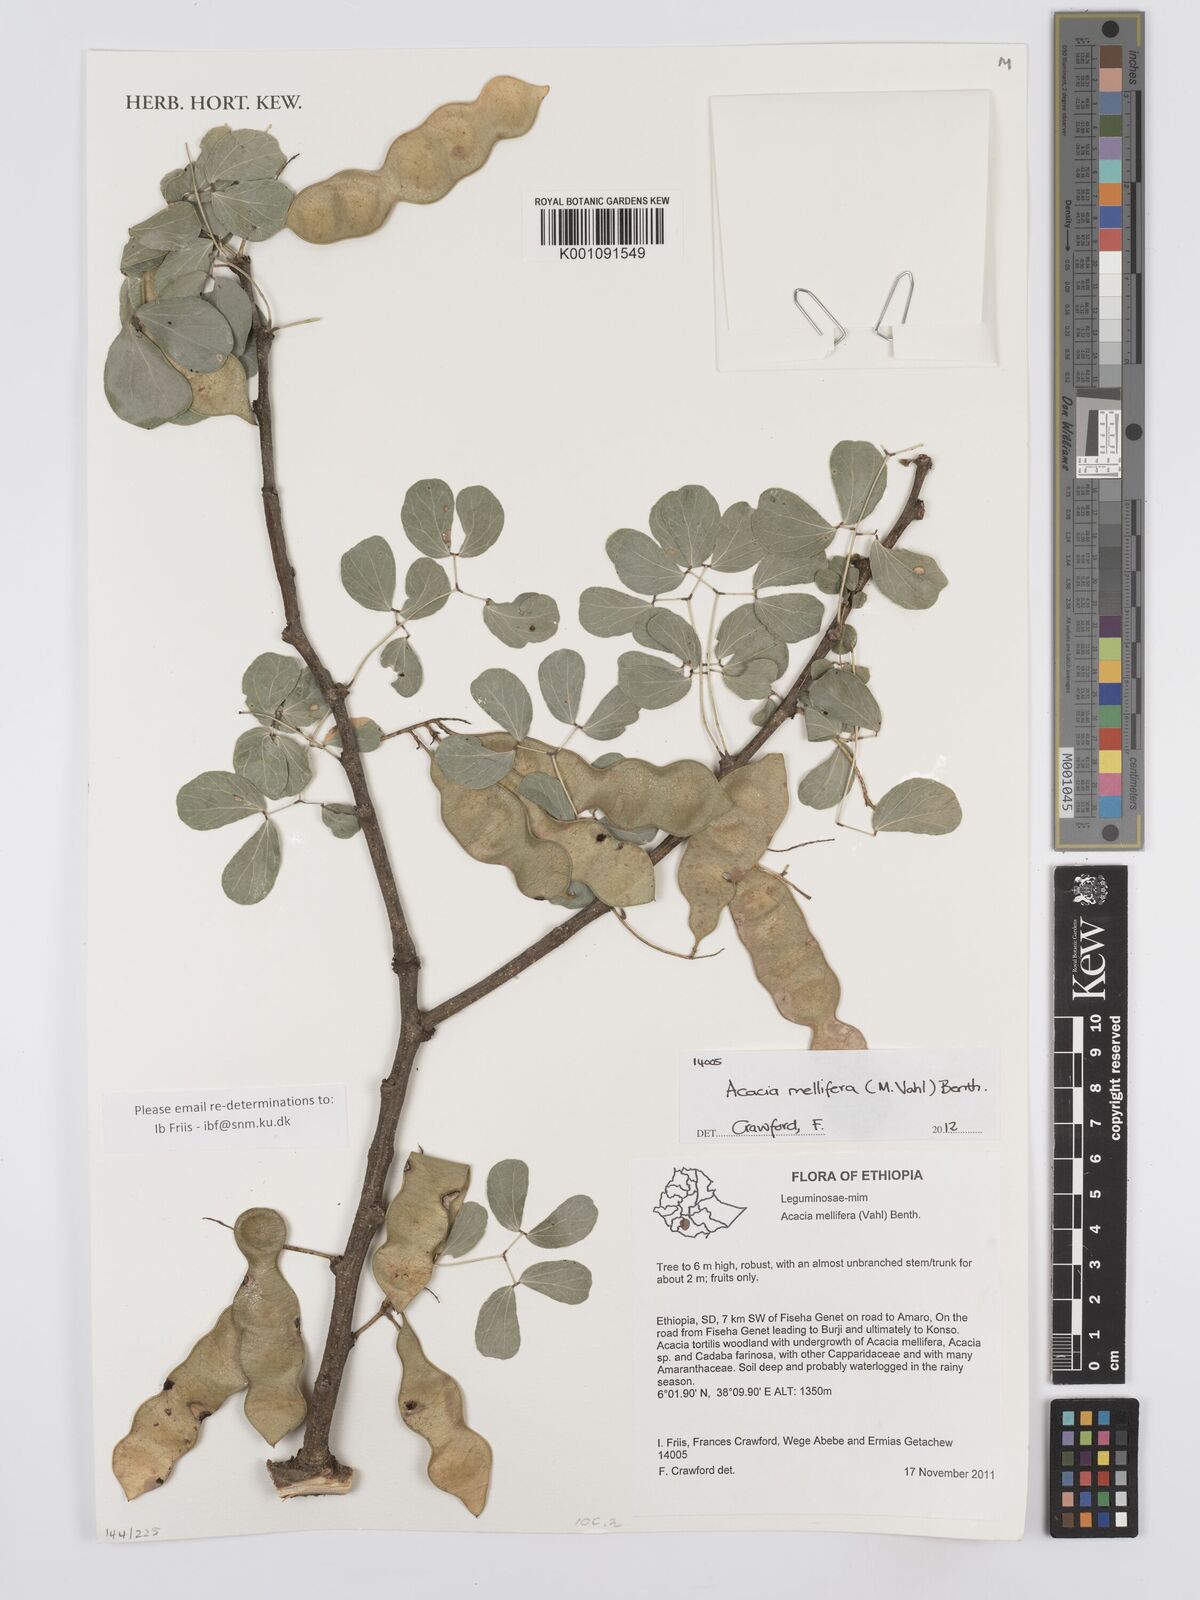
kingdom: Plantae
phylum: Tracheophyta
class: Magnoliopsida
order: Fabales
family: Fabaceae
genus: Senegalia
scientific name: Senegalia mellifera
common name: Hookthorn
